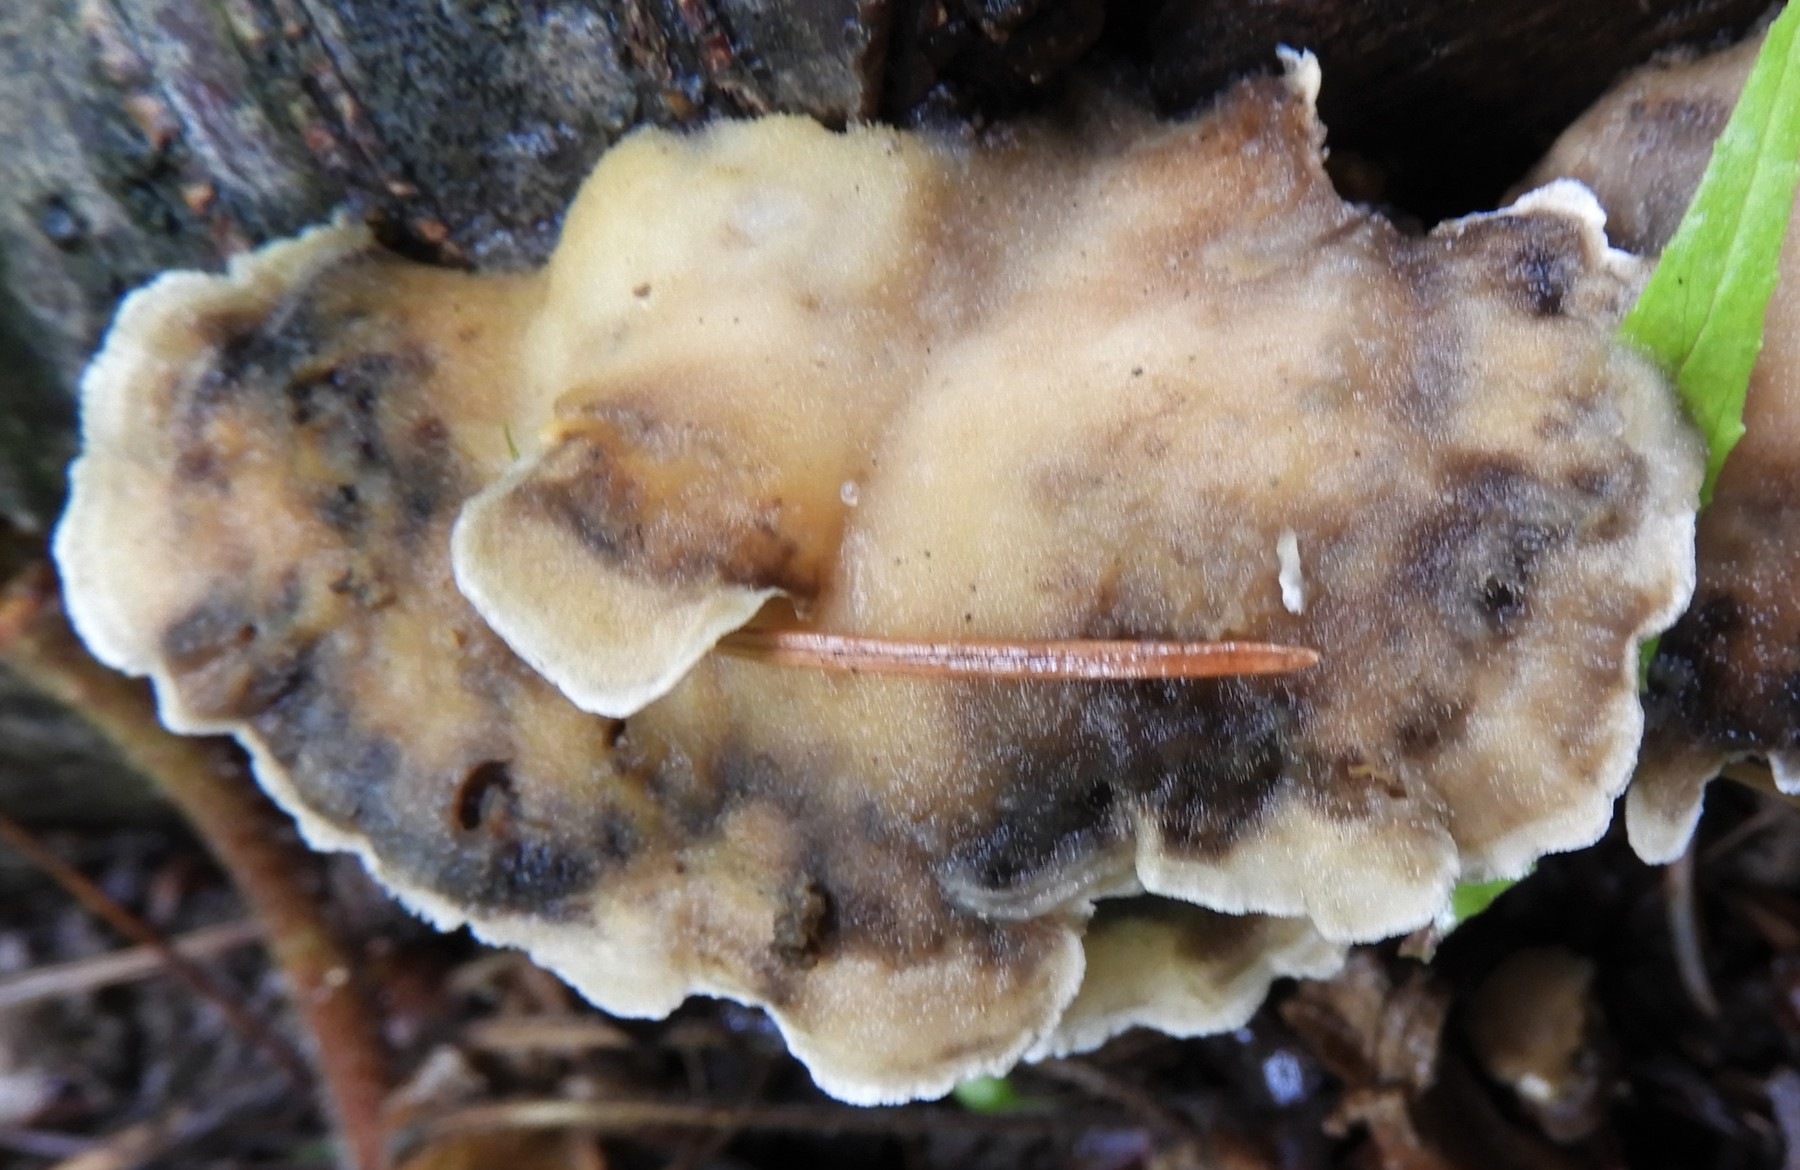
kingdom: Fungi
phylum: Basidiomycota
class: Agaricomycetes
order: Polyporales
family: Phanerochaetaceae
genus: Bjerkandera
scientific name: Bjerkandera adusta
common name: sveden sodporesvamp
